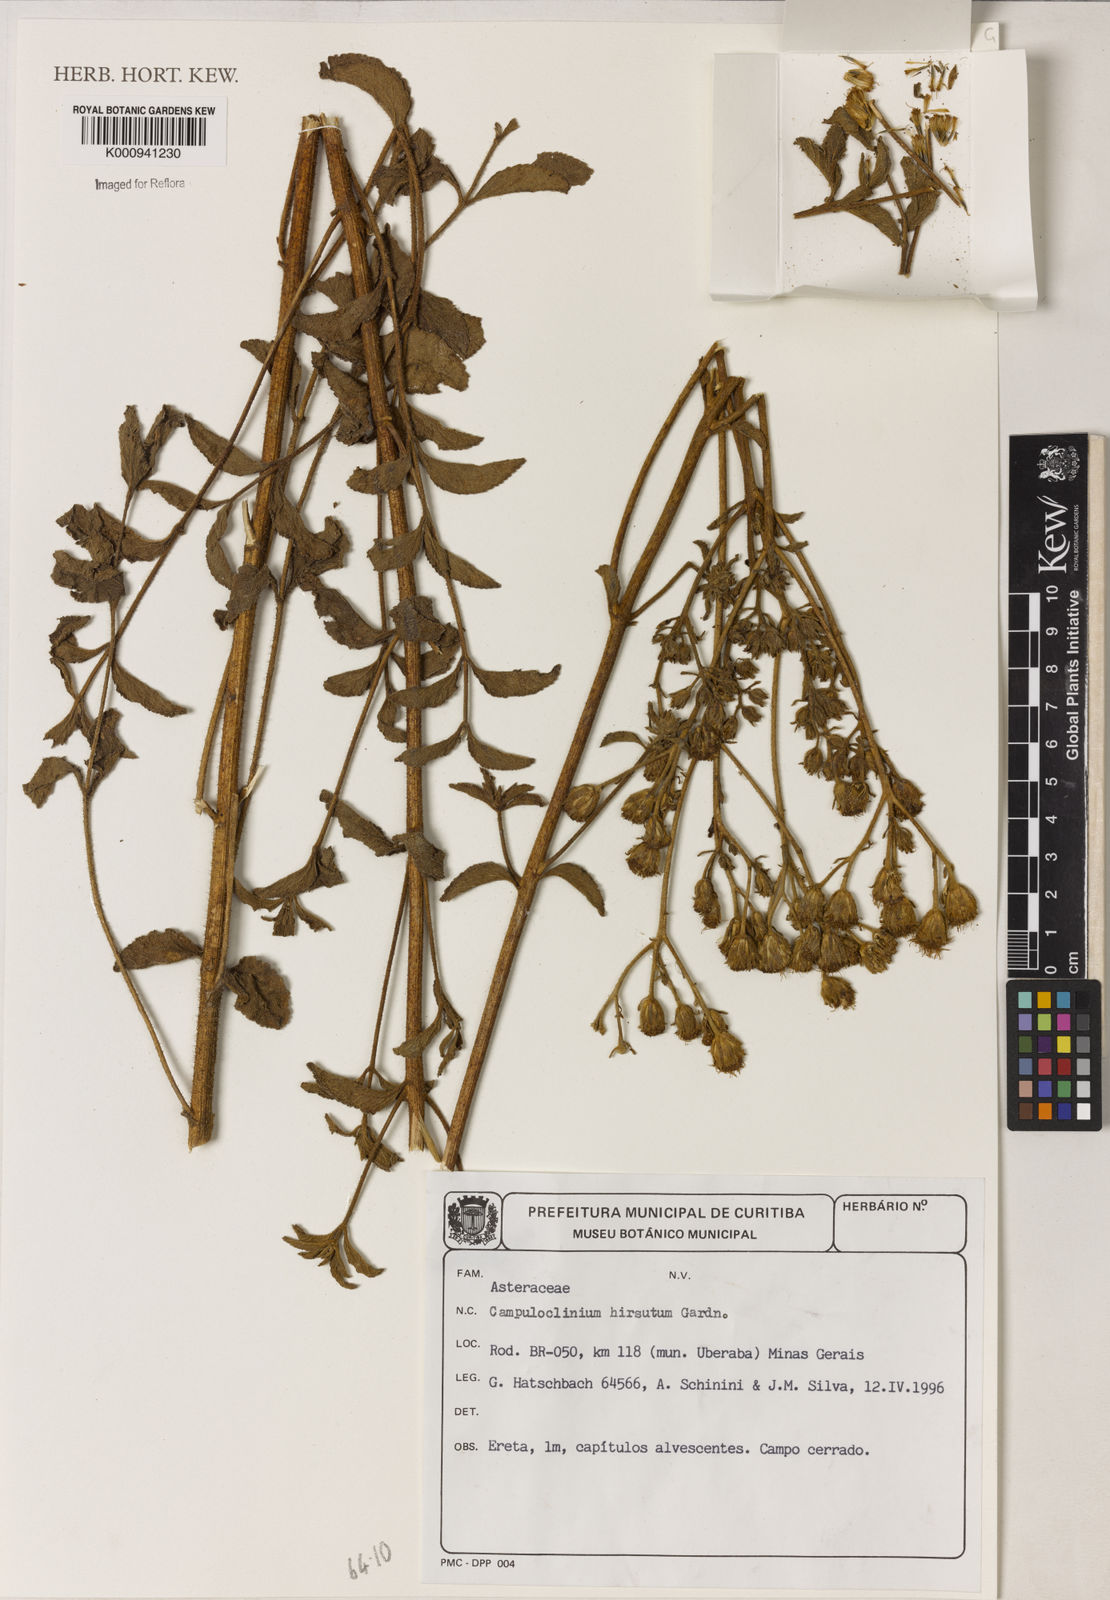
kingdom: Plantae
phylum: Tracheophyta
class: Magnoliopsida
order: Asterales
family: Asteraceae
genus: Campuloclinium
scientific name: Campuloclinium hirsutum
